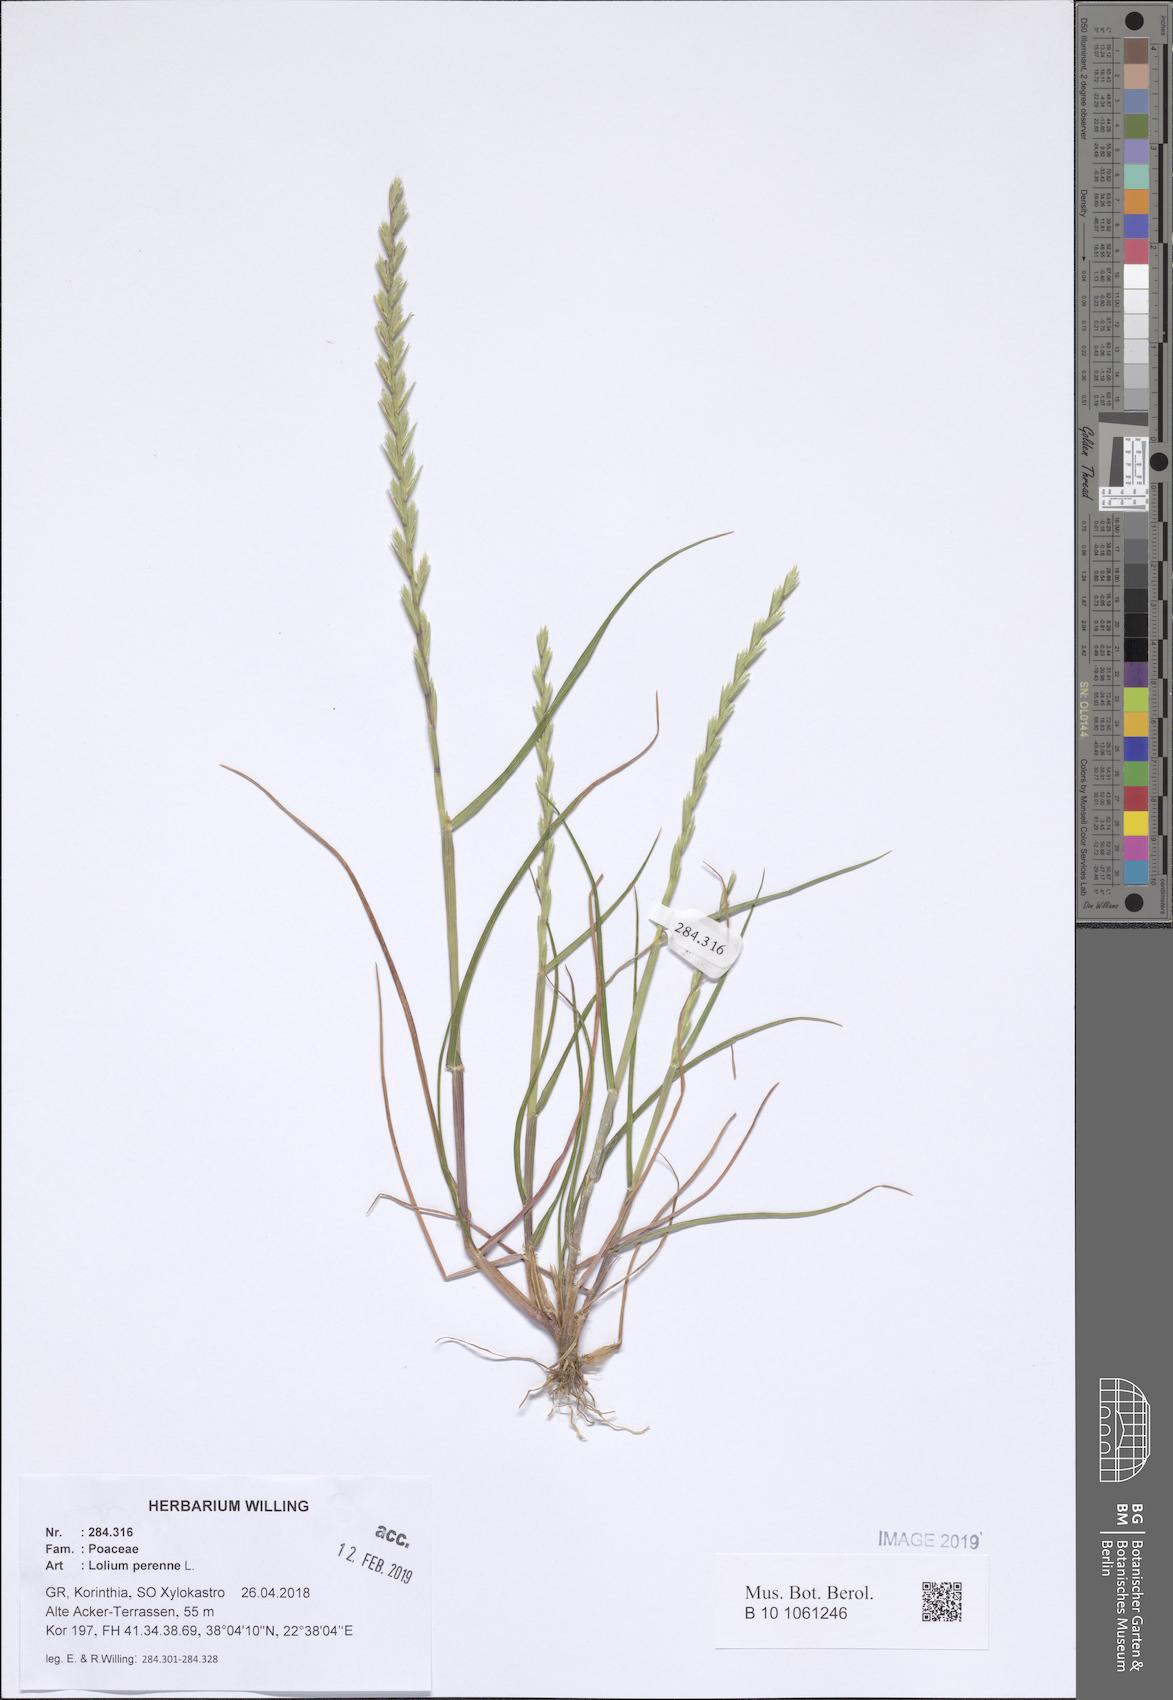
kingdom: Plantae
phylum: Tracheophyta
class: Liliopsida
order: Poales
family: Poaceae
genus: Lolium
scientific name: Lolium perenne
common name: Perennial ryegrass
